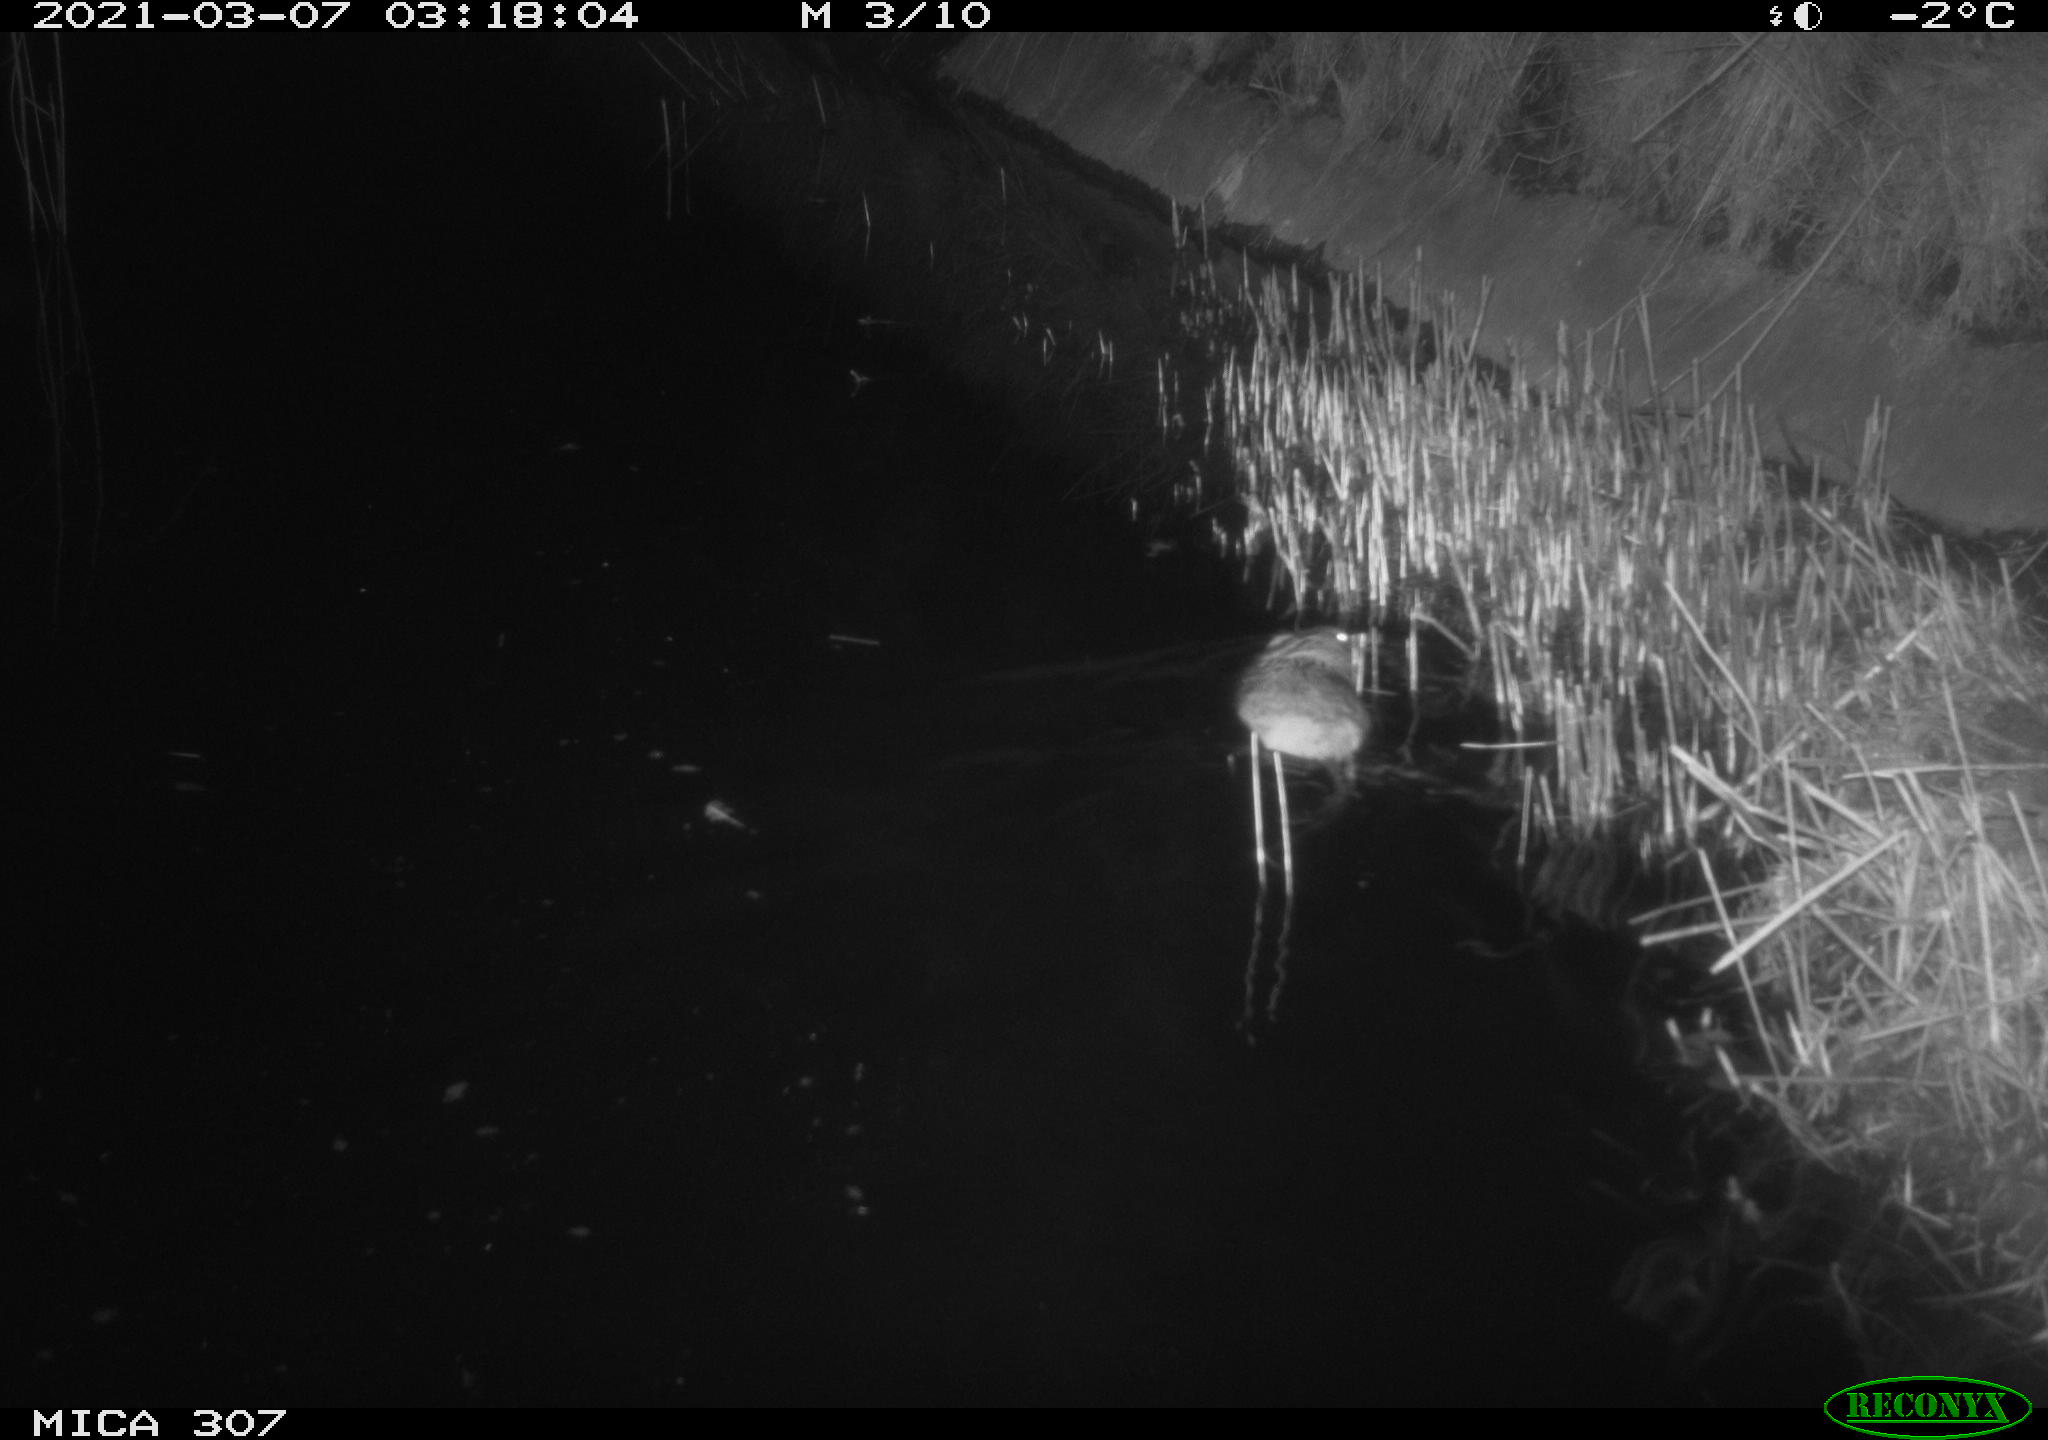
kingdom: Animalia
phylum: Chordata
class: Mammalia
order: Rodentia
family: Muridae
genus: Rattus
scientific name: Rattus norvegicus
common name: Brown rat
